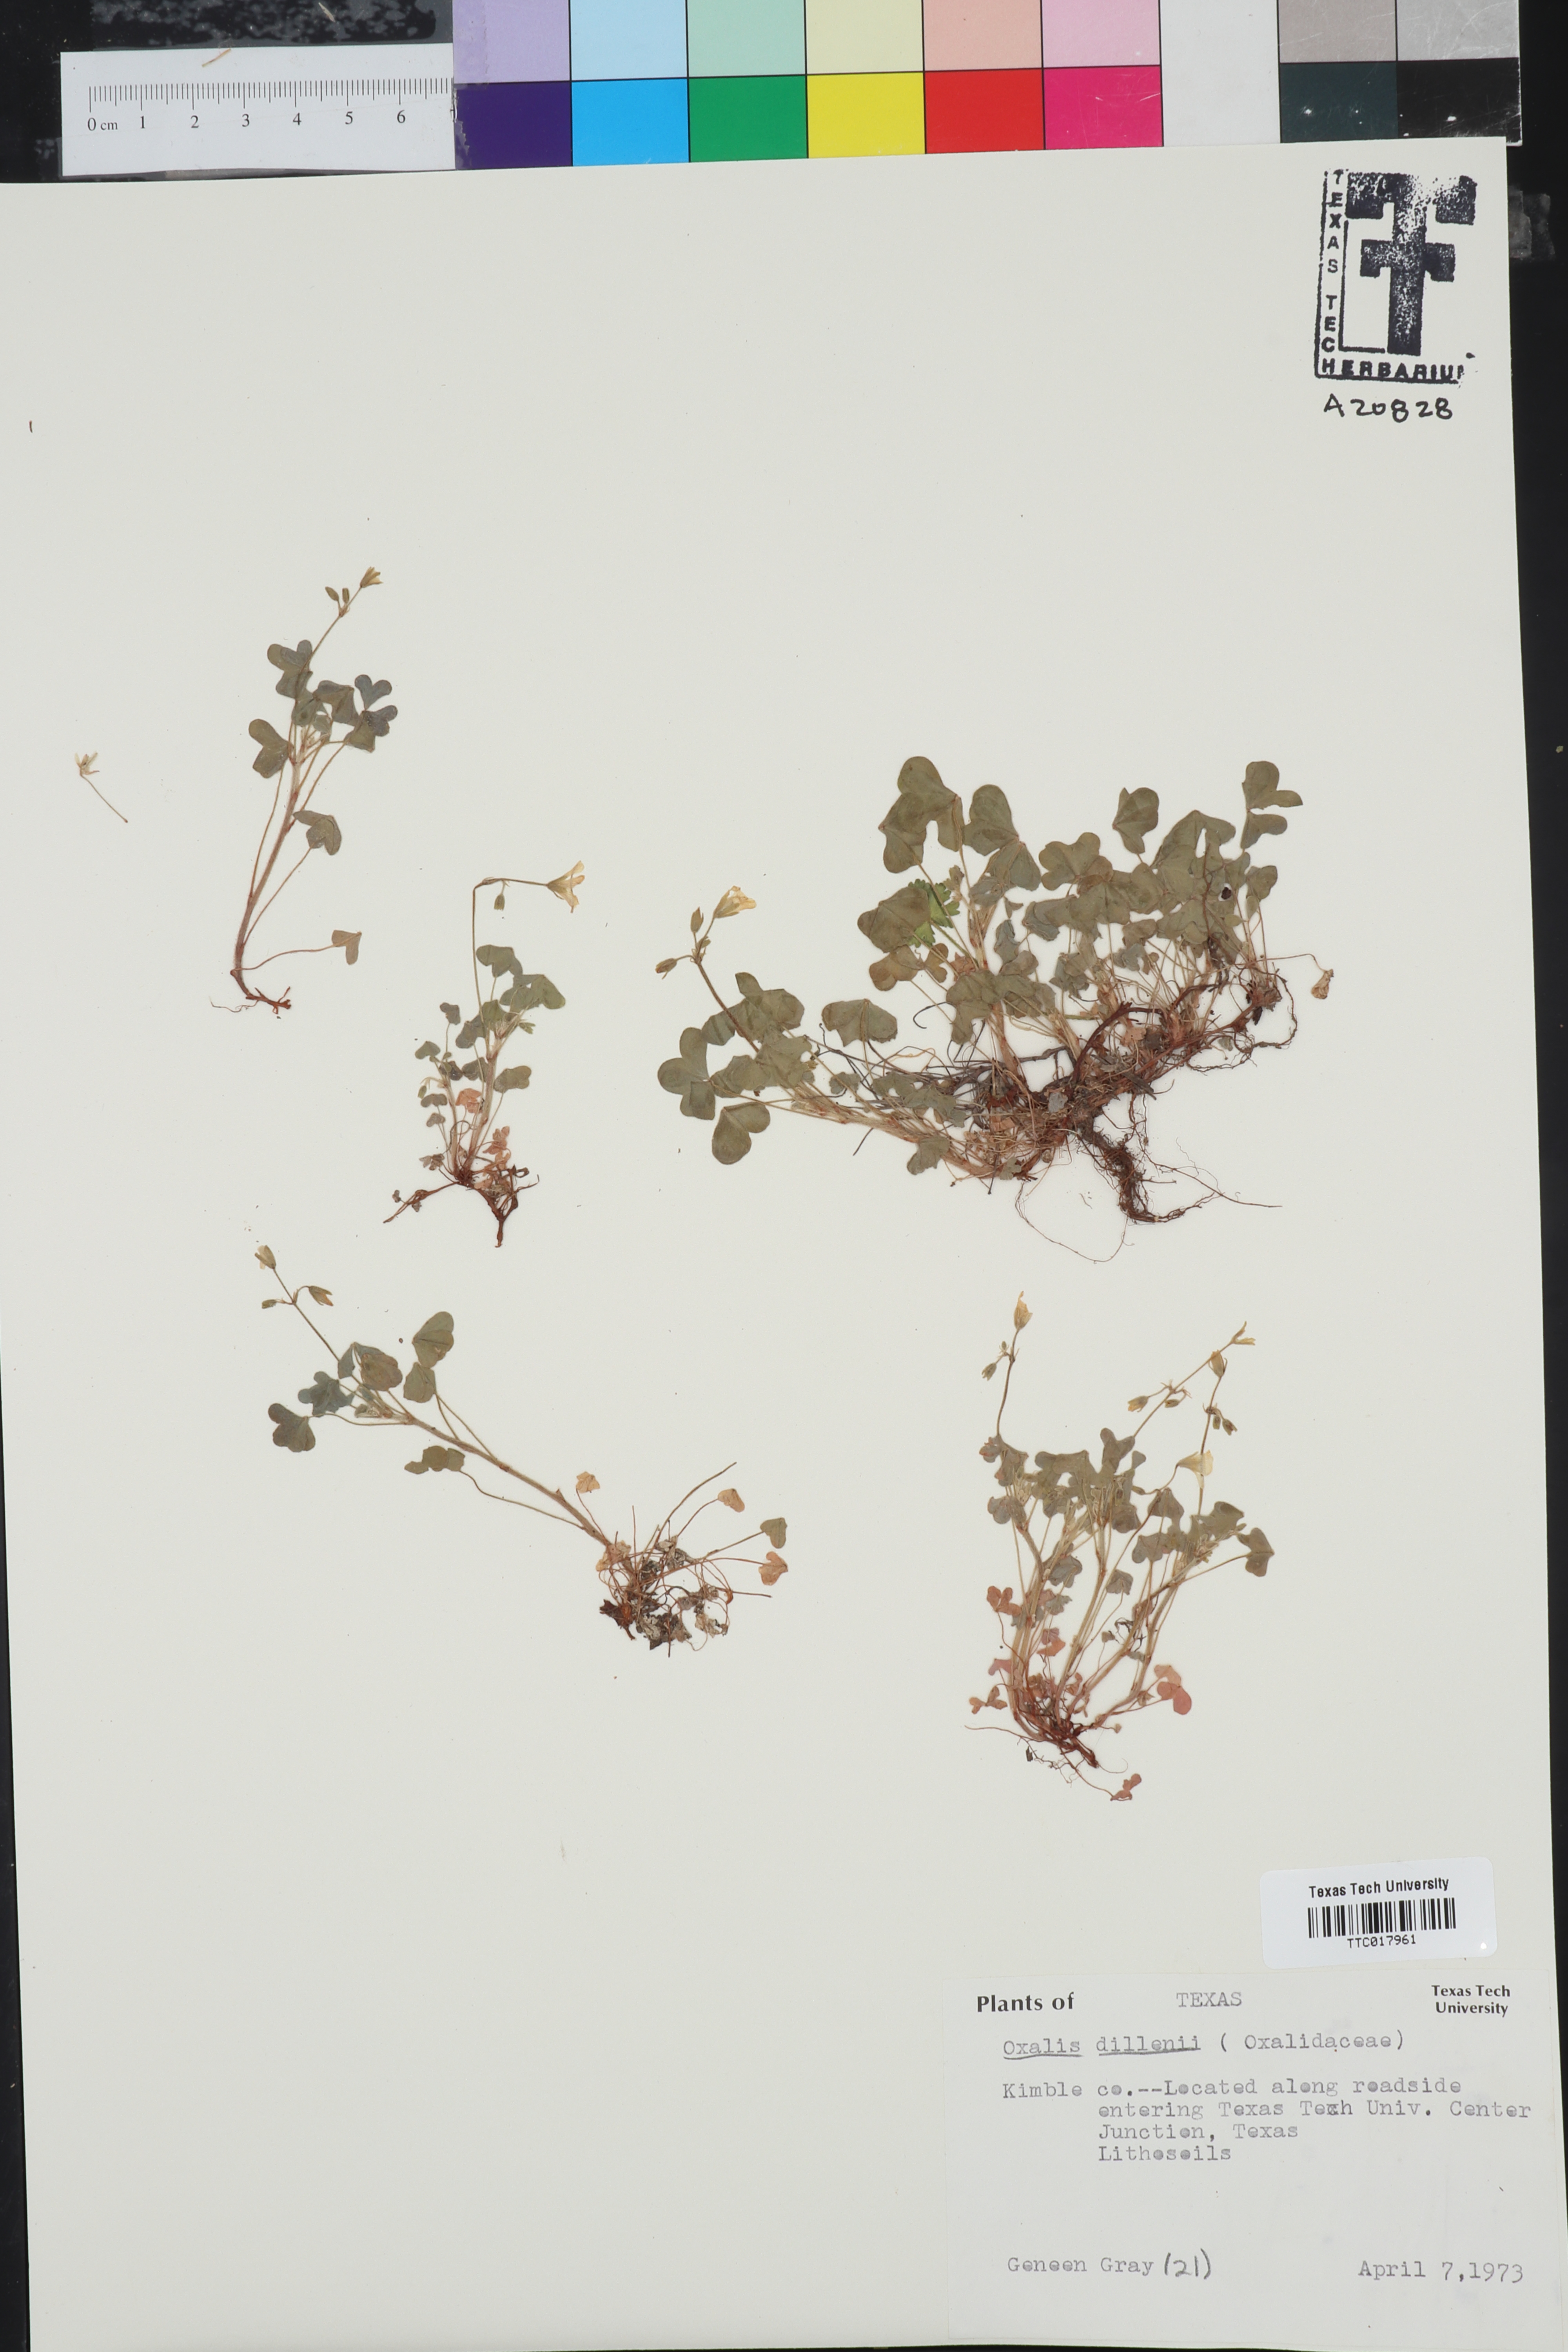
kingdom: Plantae
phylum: Tracheophyta
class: Magnoliopsida
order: Oxalidales
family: Oxalidaceae
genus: Oxalis
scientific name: Oxalis dillenii
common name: Sussex yellow-sorrel
